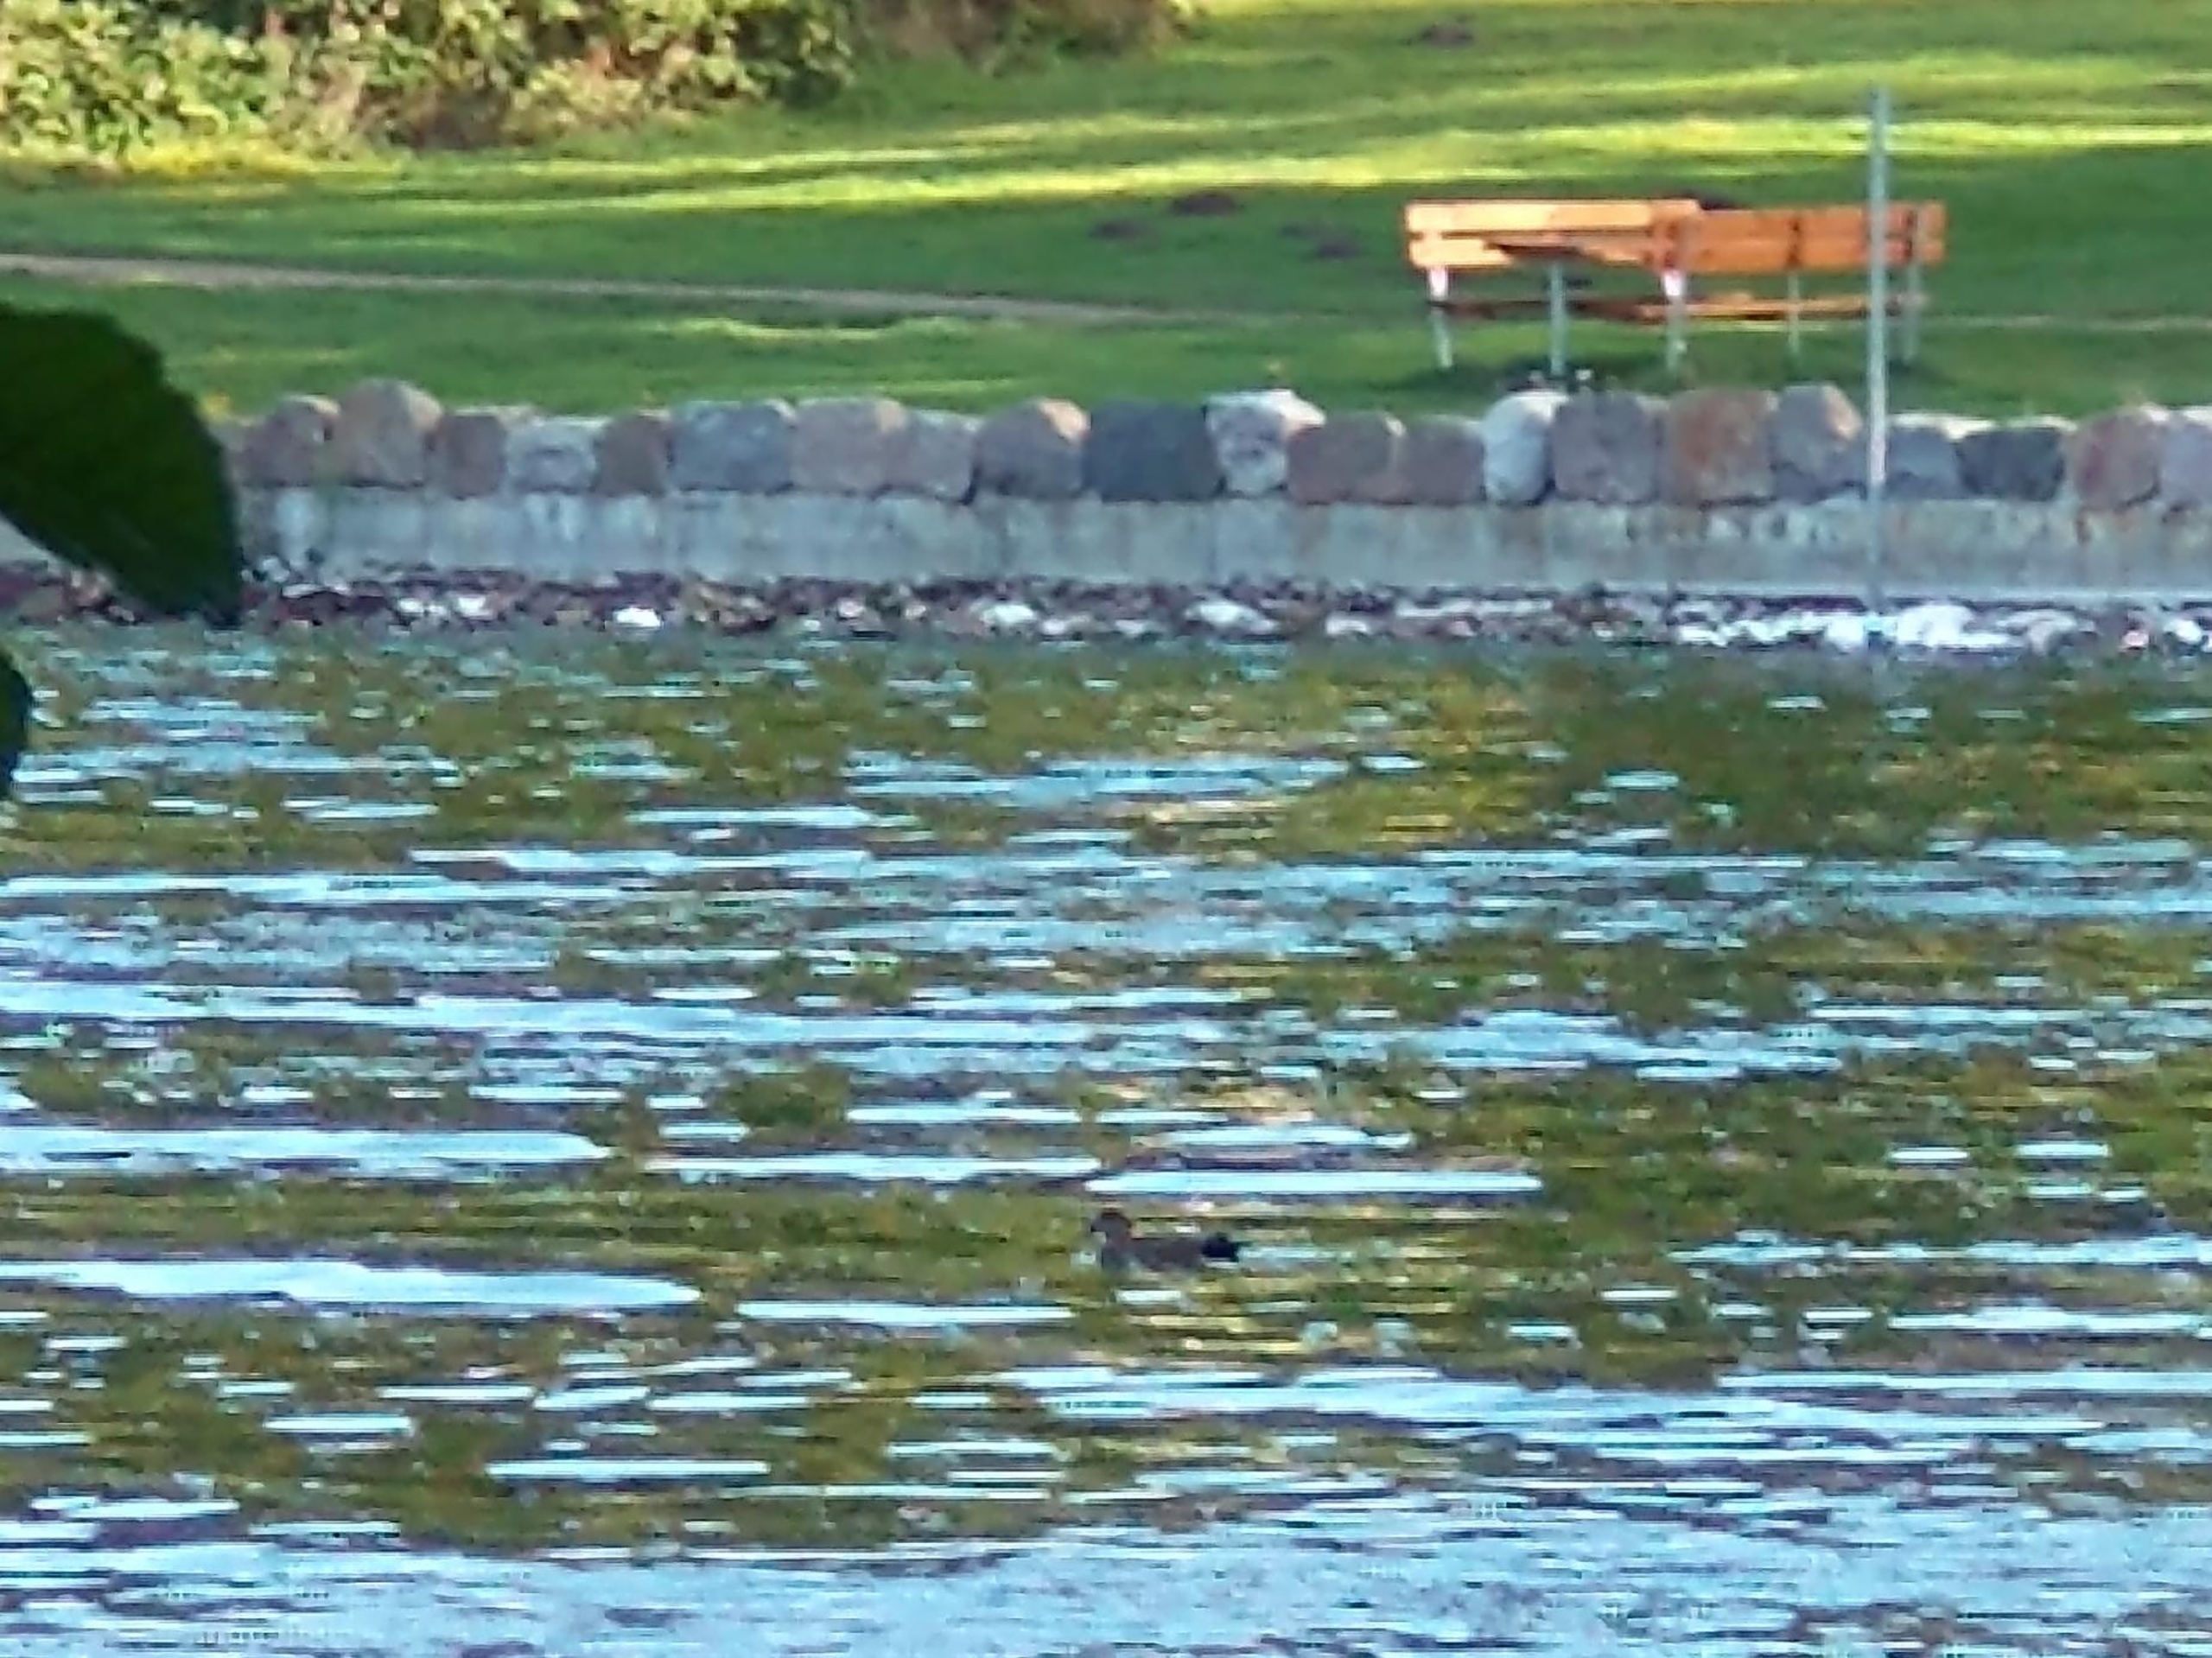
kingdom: Animalia
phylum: Chordata
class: Aves
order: Anseriformes
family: Anatidae
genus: Mareca
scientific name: Mareca strepera
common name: Knarand
